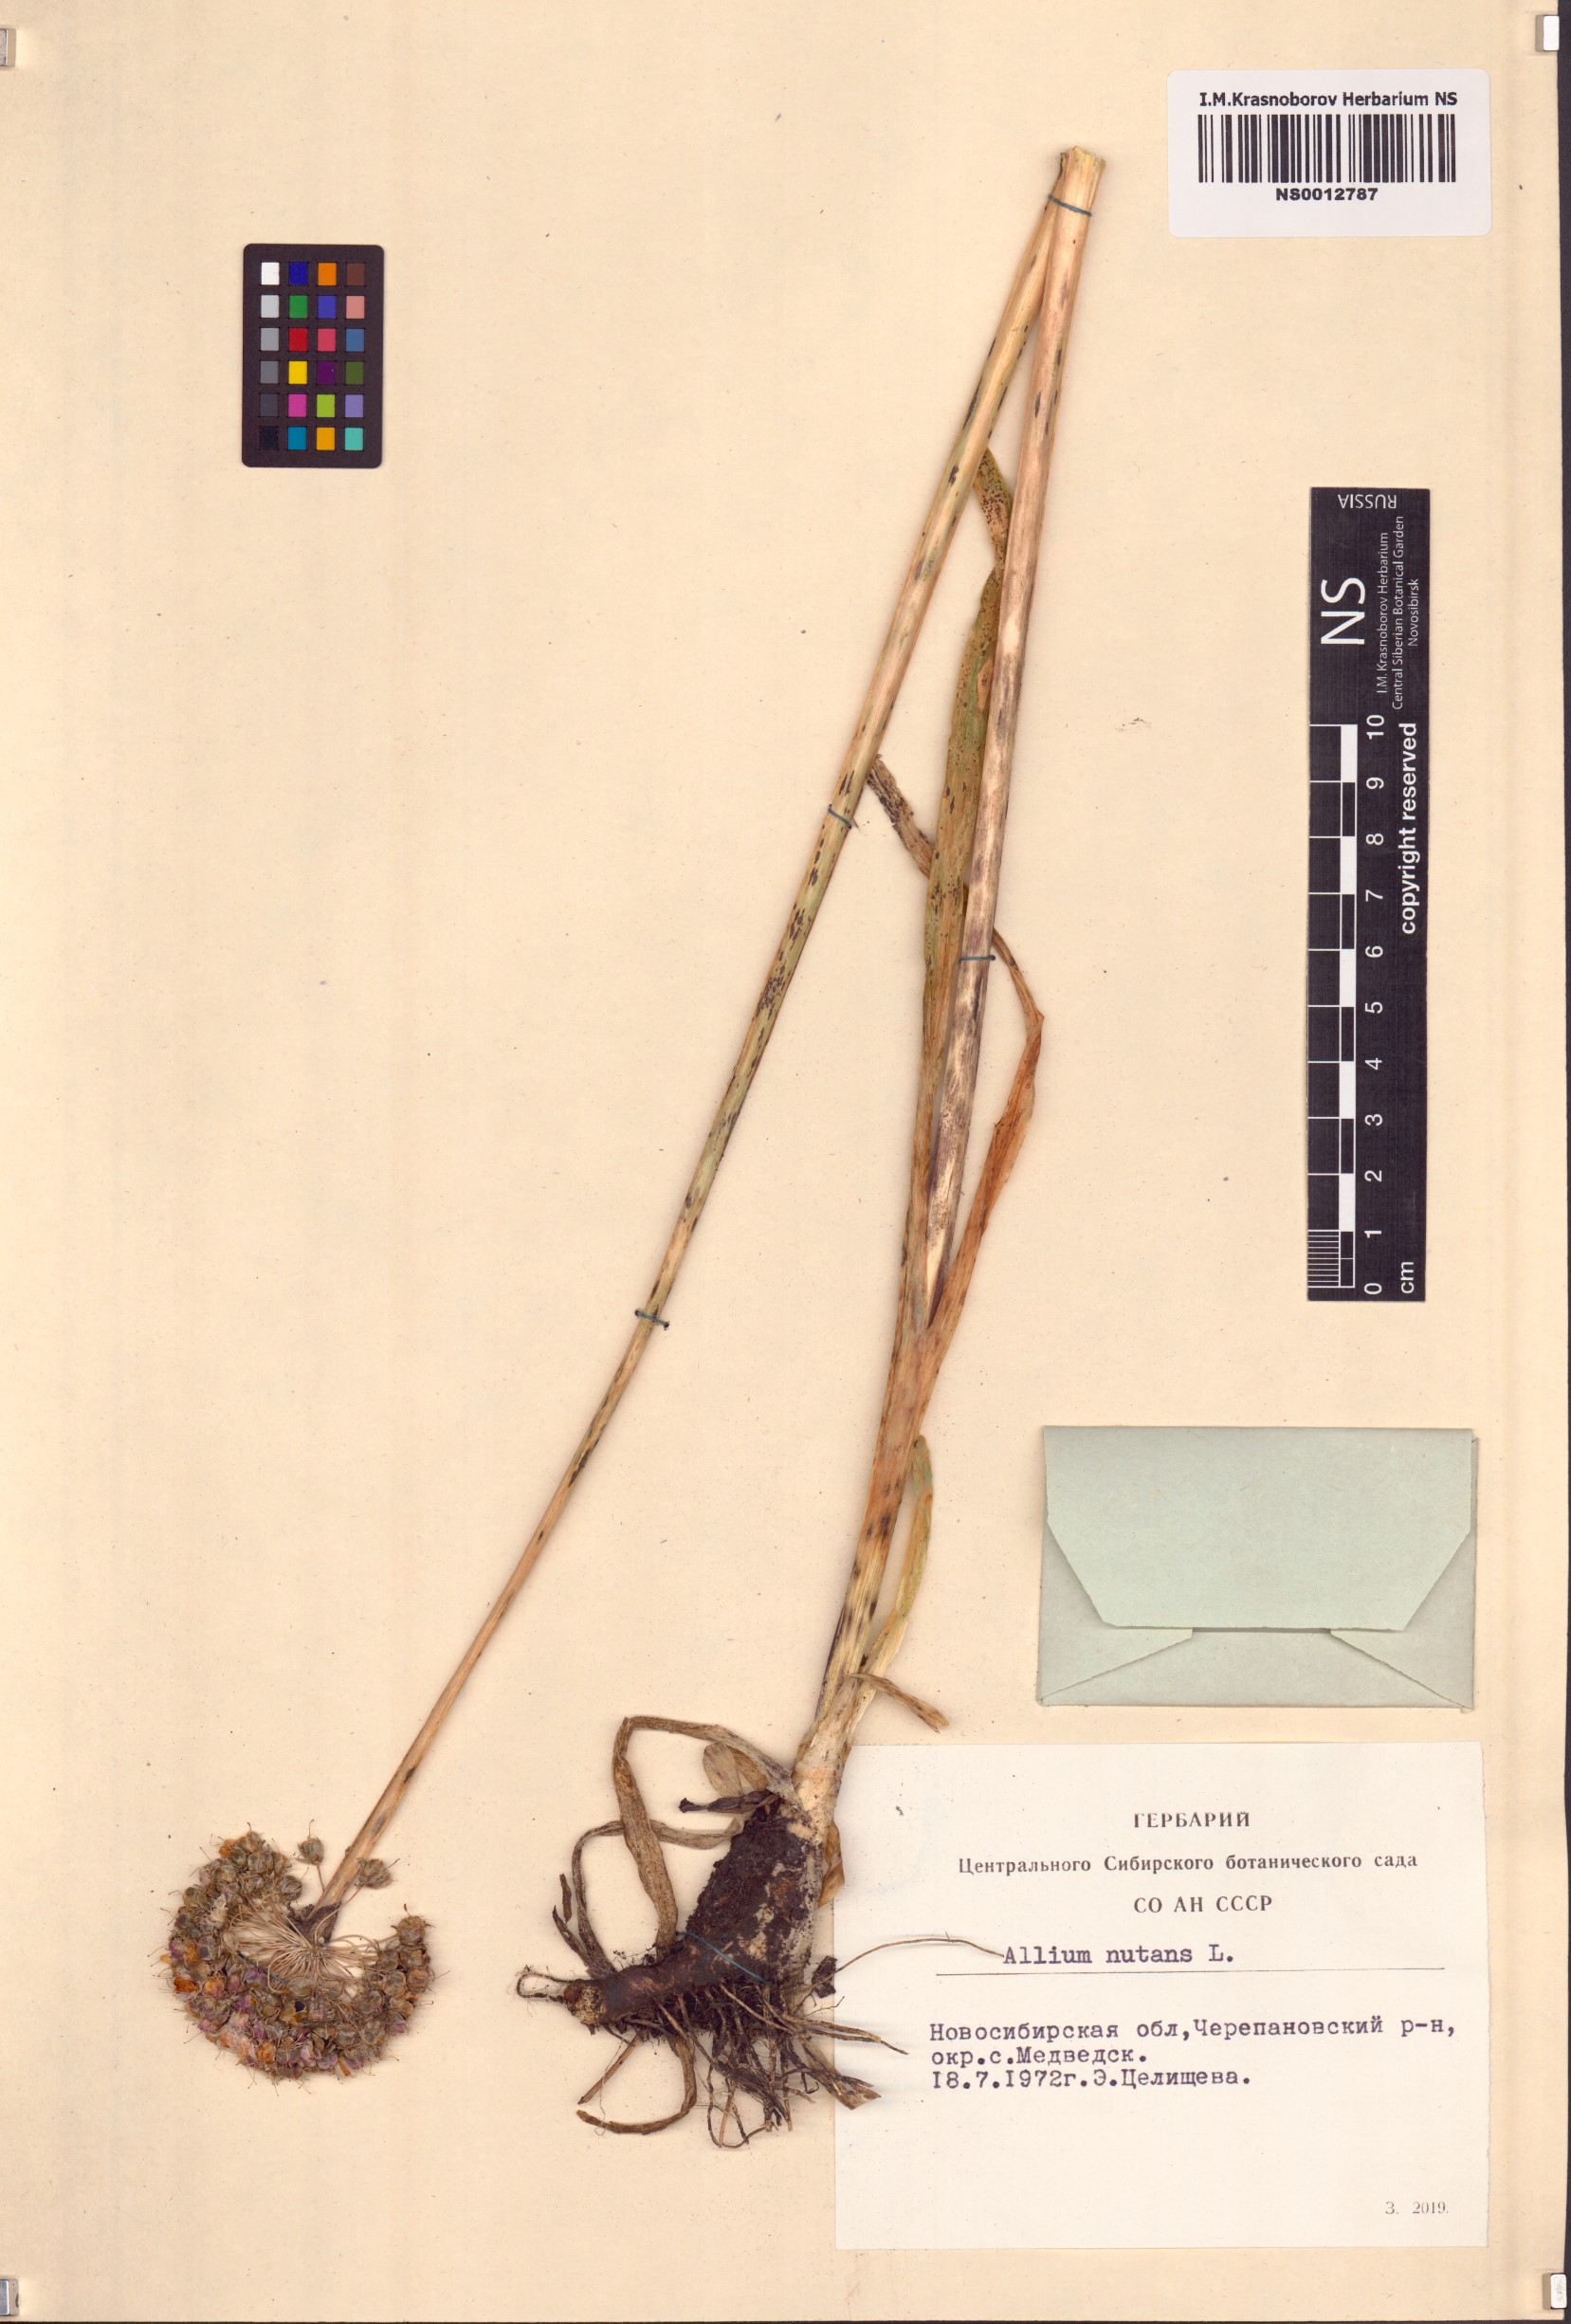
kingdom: Plantae
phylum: Tracheophyta
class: Liliopsida
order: Asparagales
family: Amaryllidaceae
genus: Allium
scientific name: Allium nutans
